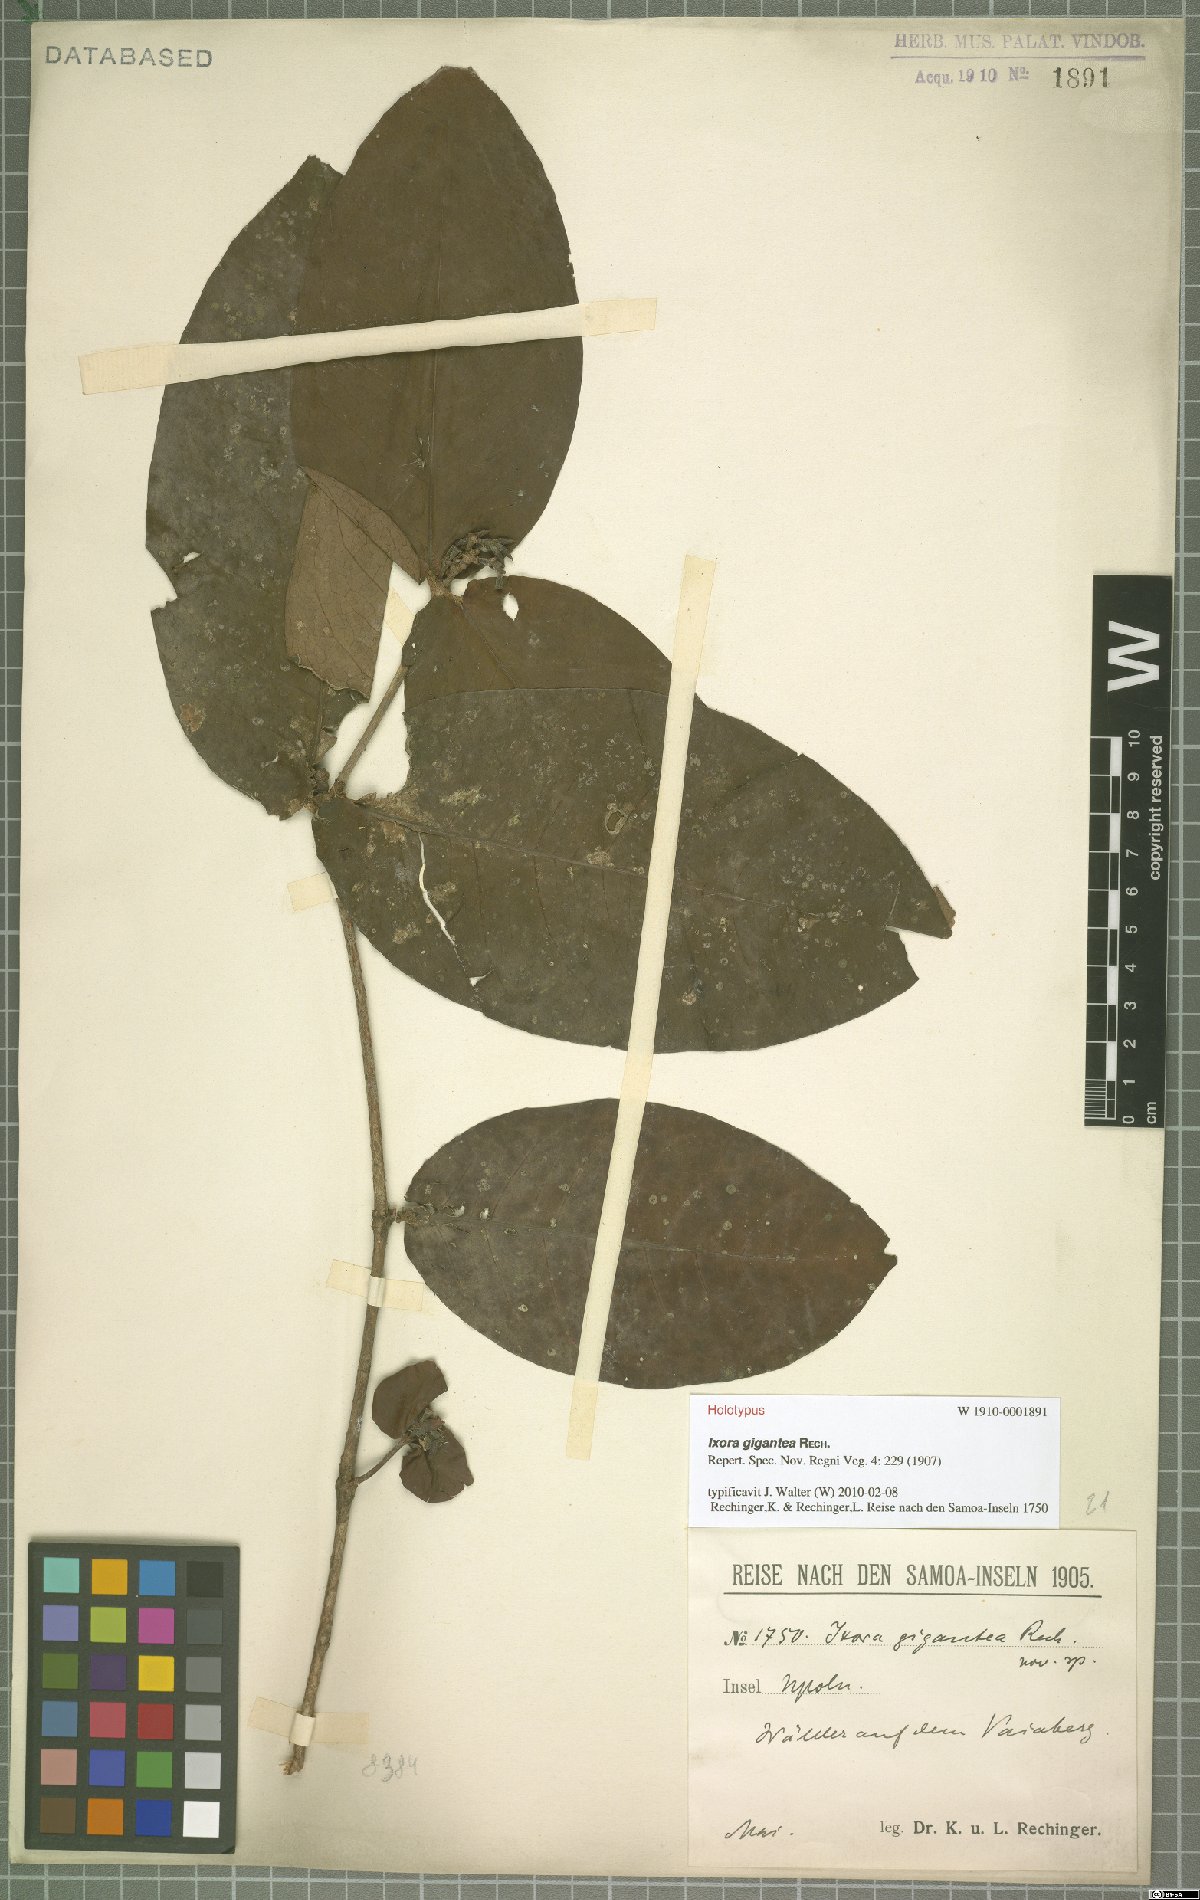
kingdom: Plantae
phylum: Tracheophyta
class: Magnoliopsida
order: Gentianales
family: Rubiaceae
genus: Ixora
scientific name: Ixora gigantea
